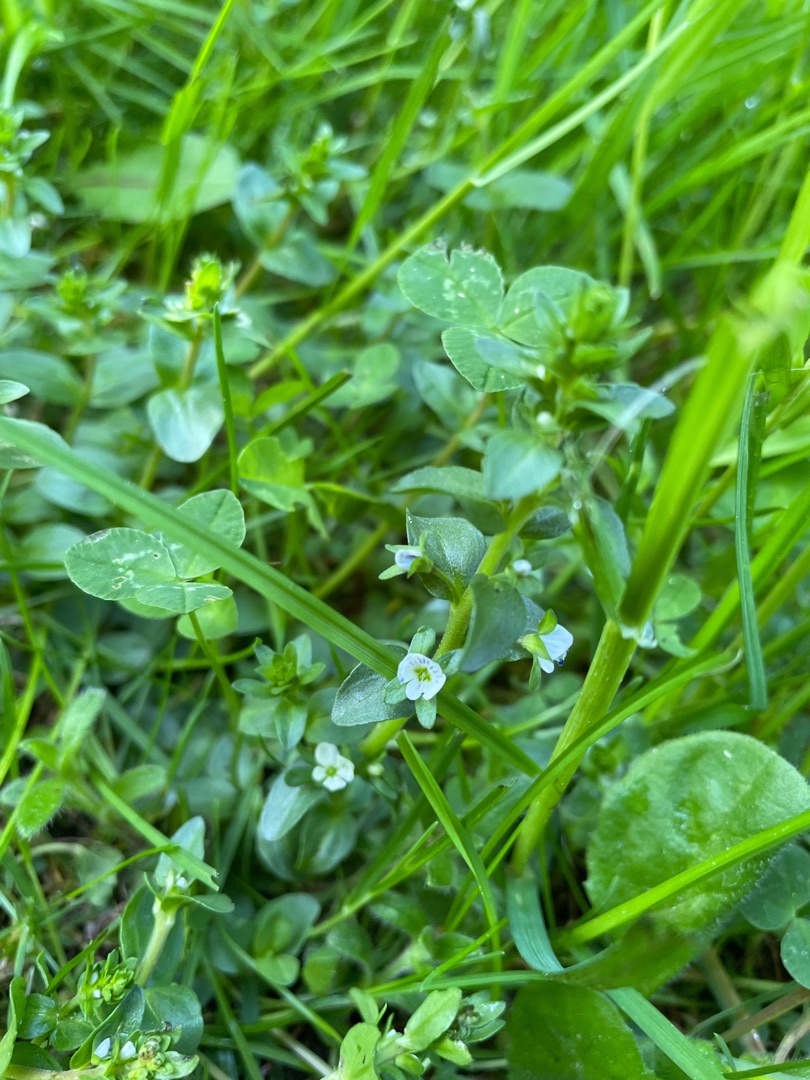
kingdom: Plantae
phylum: Tracheophyta
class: Magnoliopsida
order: Lamiales
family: Plantaginaceae
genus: Veronica
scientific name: Veronica serpyllifolia
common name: Glat ærenpris
